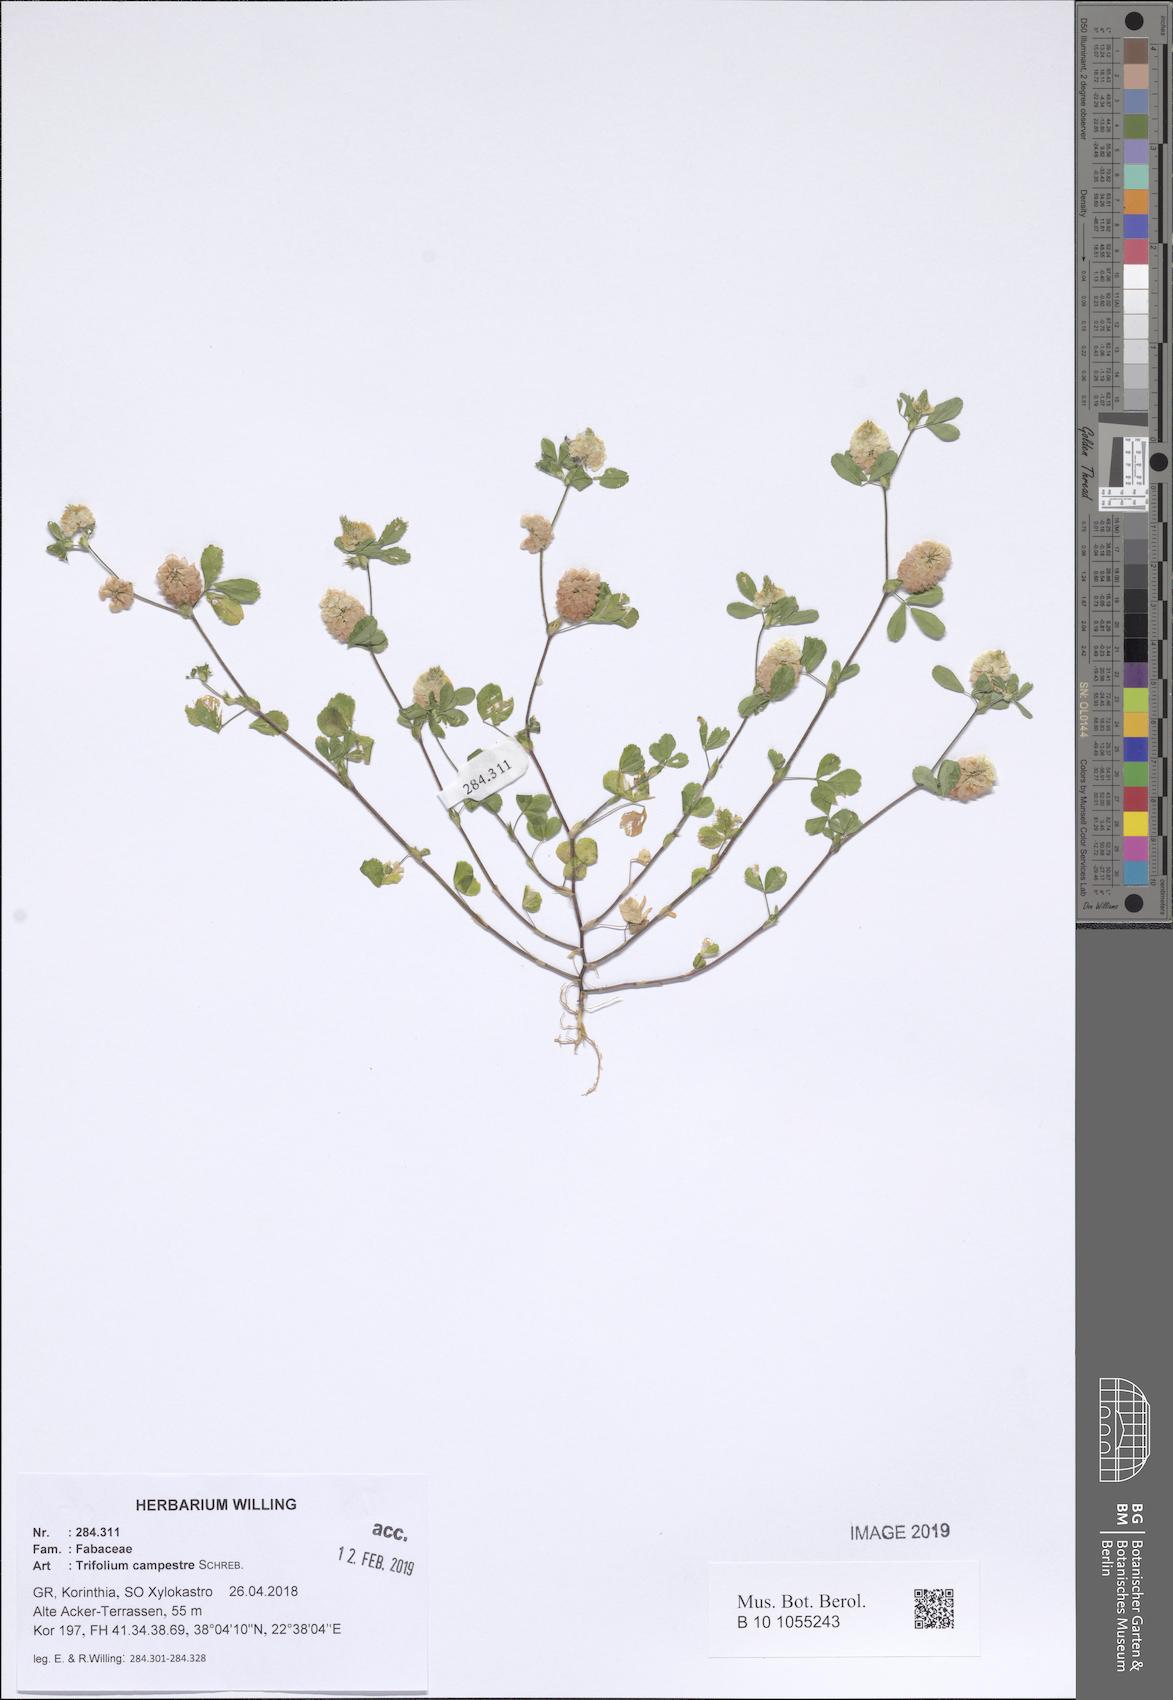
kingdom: Plantae
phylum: Tracheophyta
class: Magnoliopsida
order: Fabales
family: Fabaceae
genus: Trifolium
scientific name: Trifolium campestre
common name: Field clover
